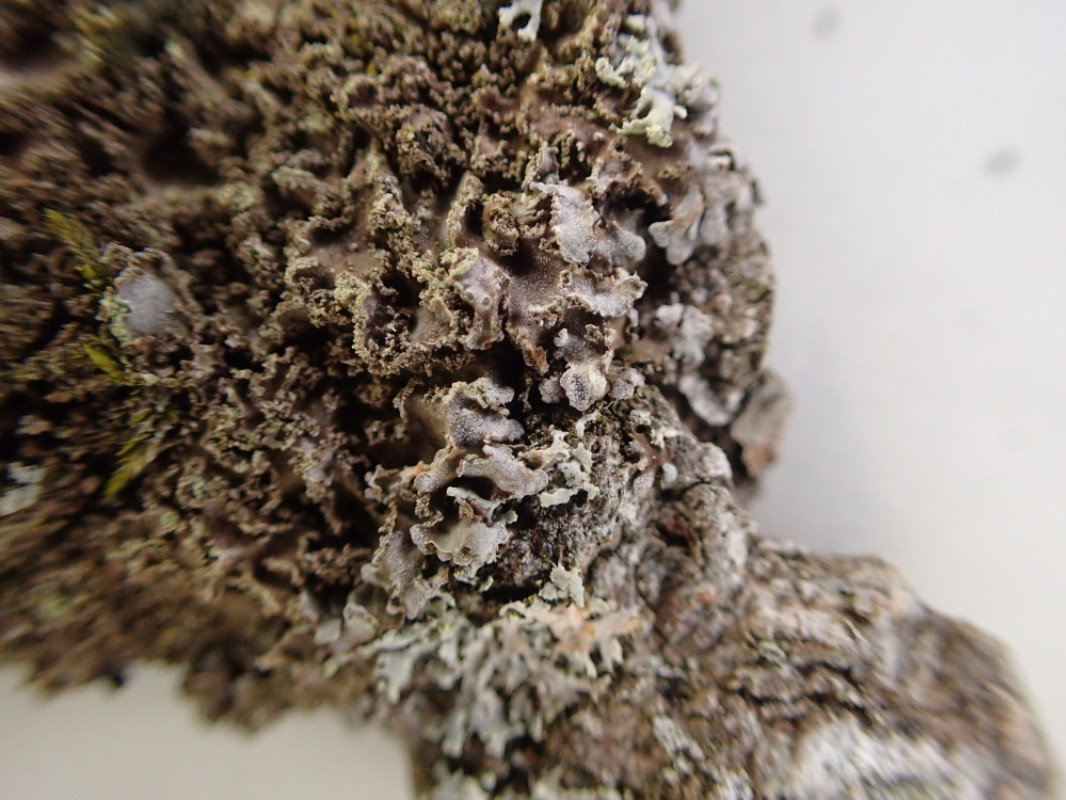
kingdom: Fungi
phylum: Ascomycota
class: Lecanoromycetes
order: Caliciales
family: Physciaceae
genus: Physconia
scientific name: Physconia perisidiosa
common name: liden dugrosetlav
